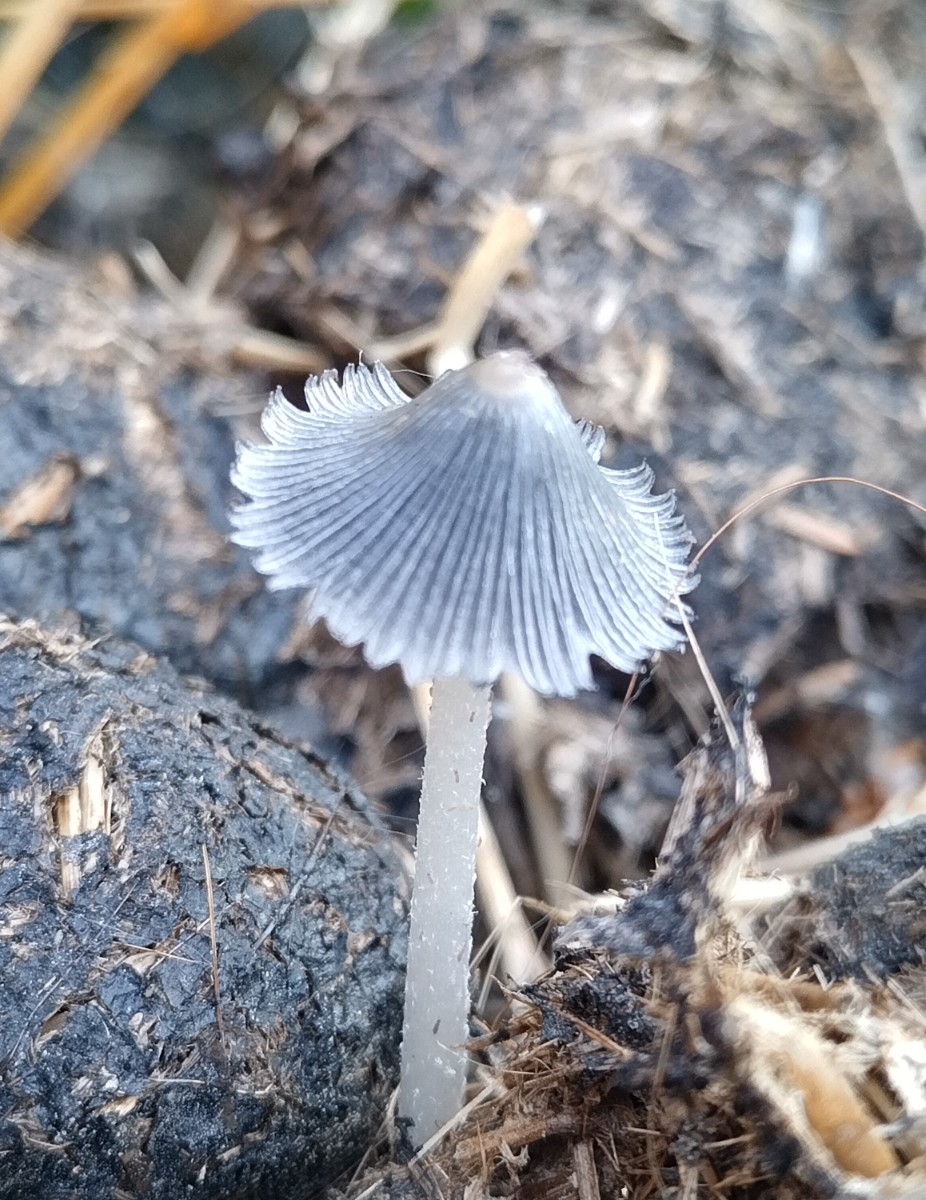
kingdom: Fungi
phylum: Basidiomycota
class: Agaricomycetes
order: Agaricales
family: Psathyrellaceae
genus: Coprinopsis
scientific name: Coprinopsis
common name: blækhat
